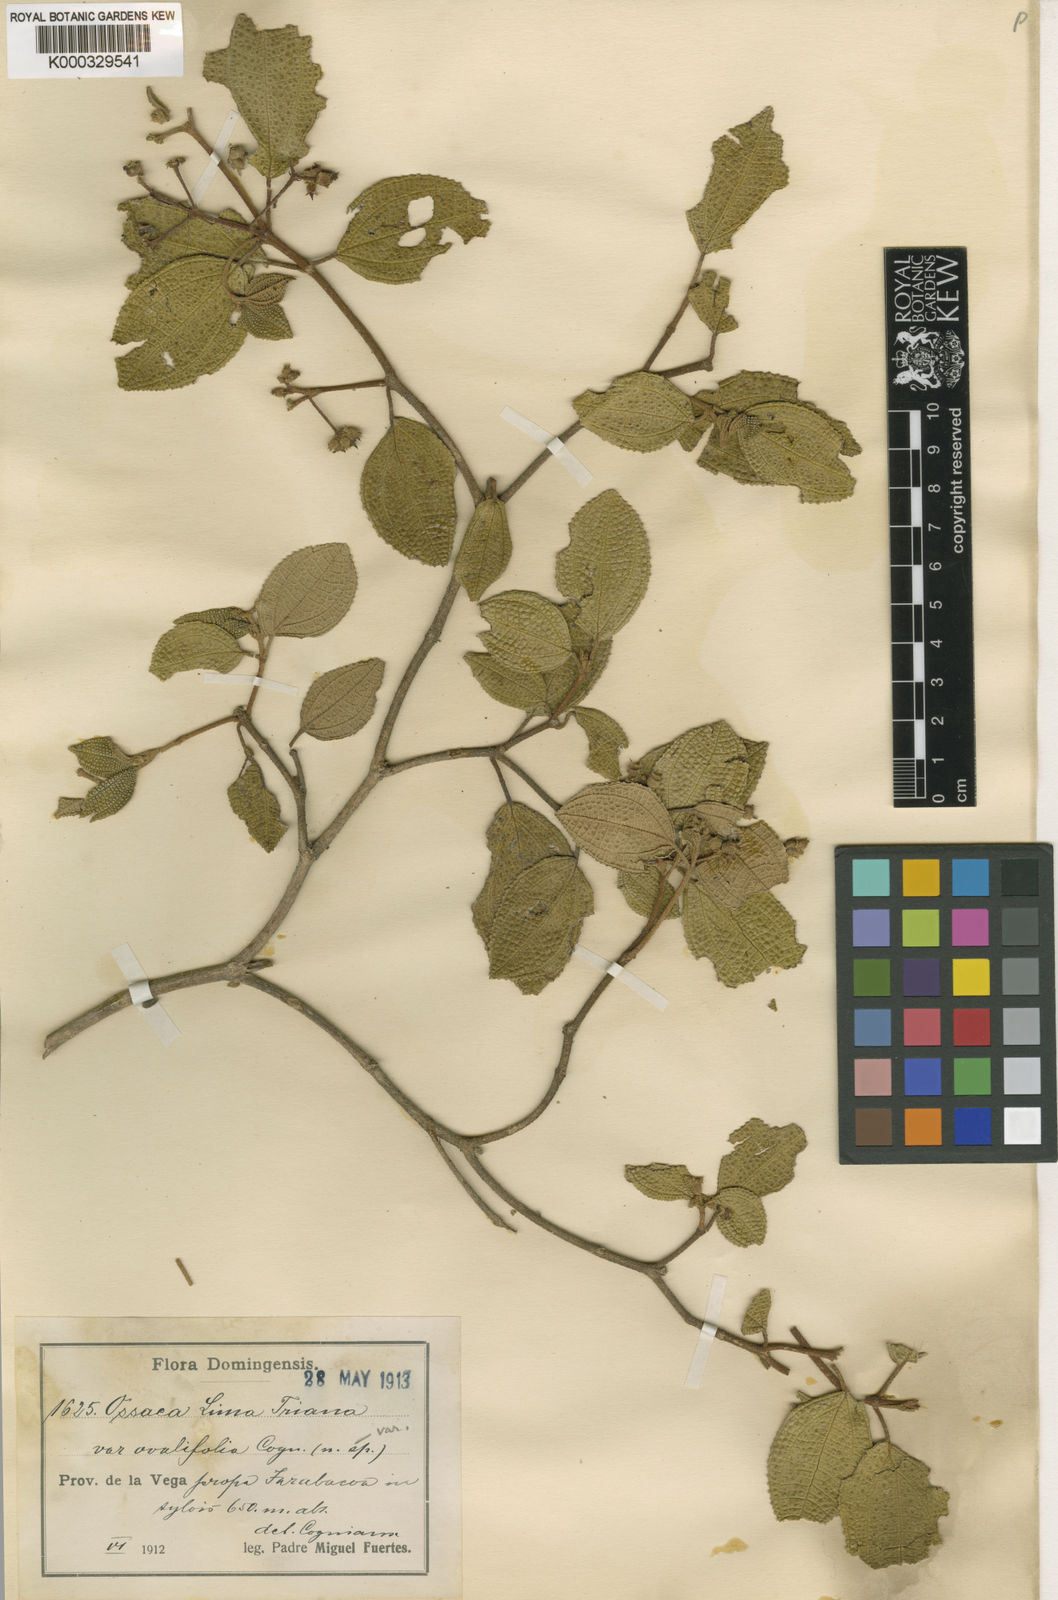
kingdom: Plantae
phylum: Tracheophyta
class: Magnoliopsida
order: Myrtales
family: Melastomataceae
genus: Miconia
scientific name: Miconia lima
